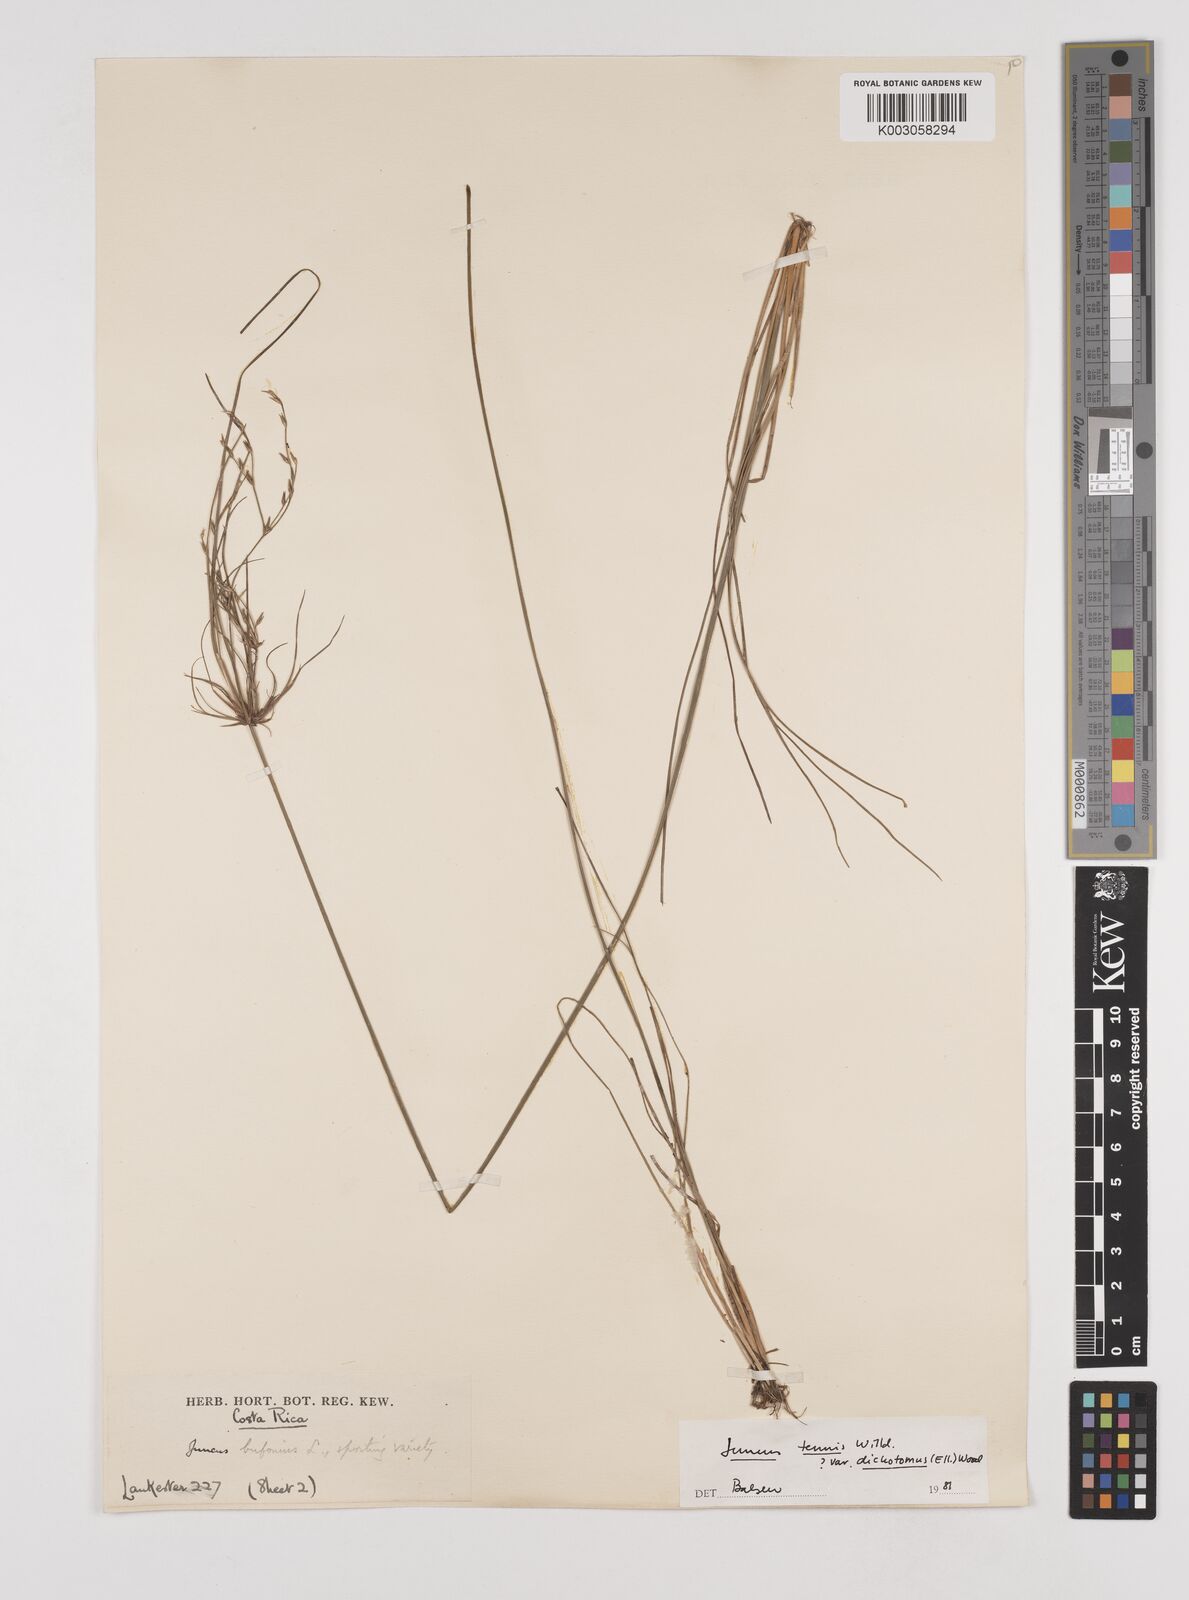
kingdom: Plantae
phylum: Tracheophyta
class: Liliopsida
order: Poales
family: Juncaceae
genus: Juncus
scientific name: Juncus dichotomus
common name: Forked rush
